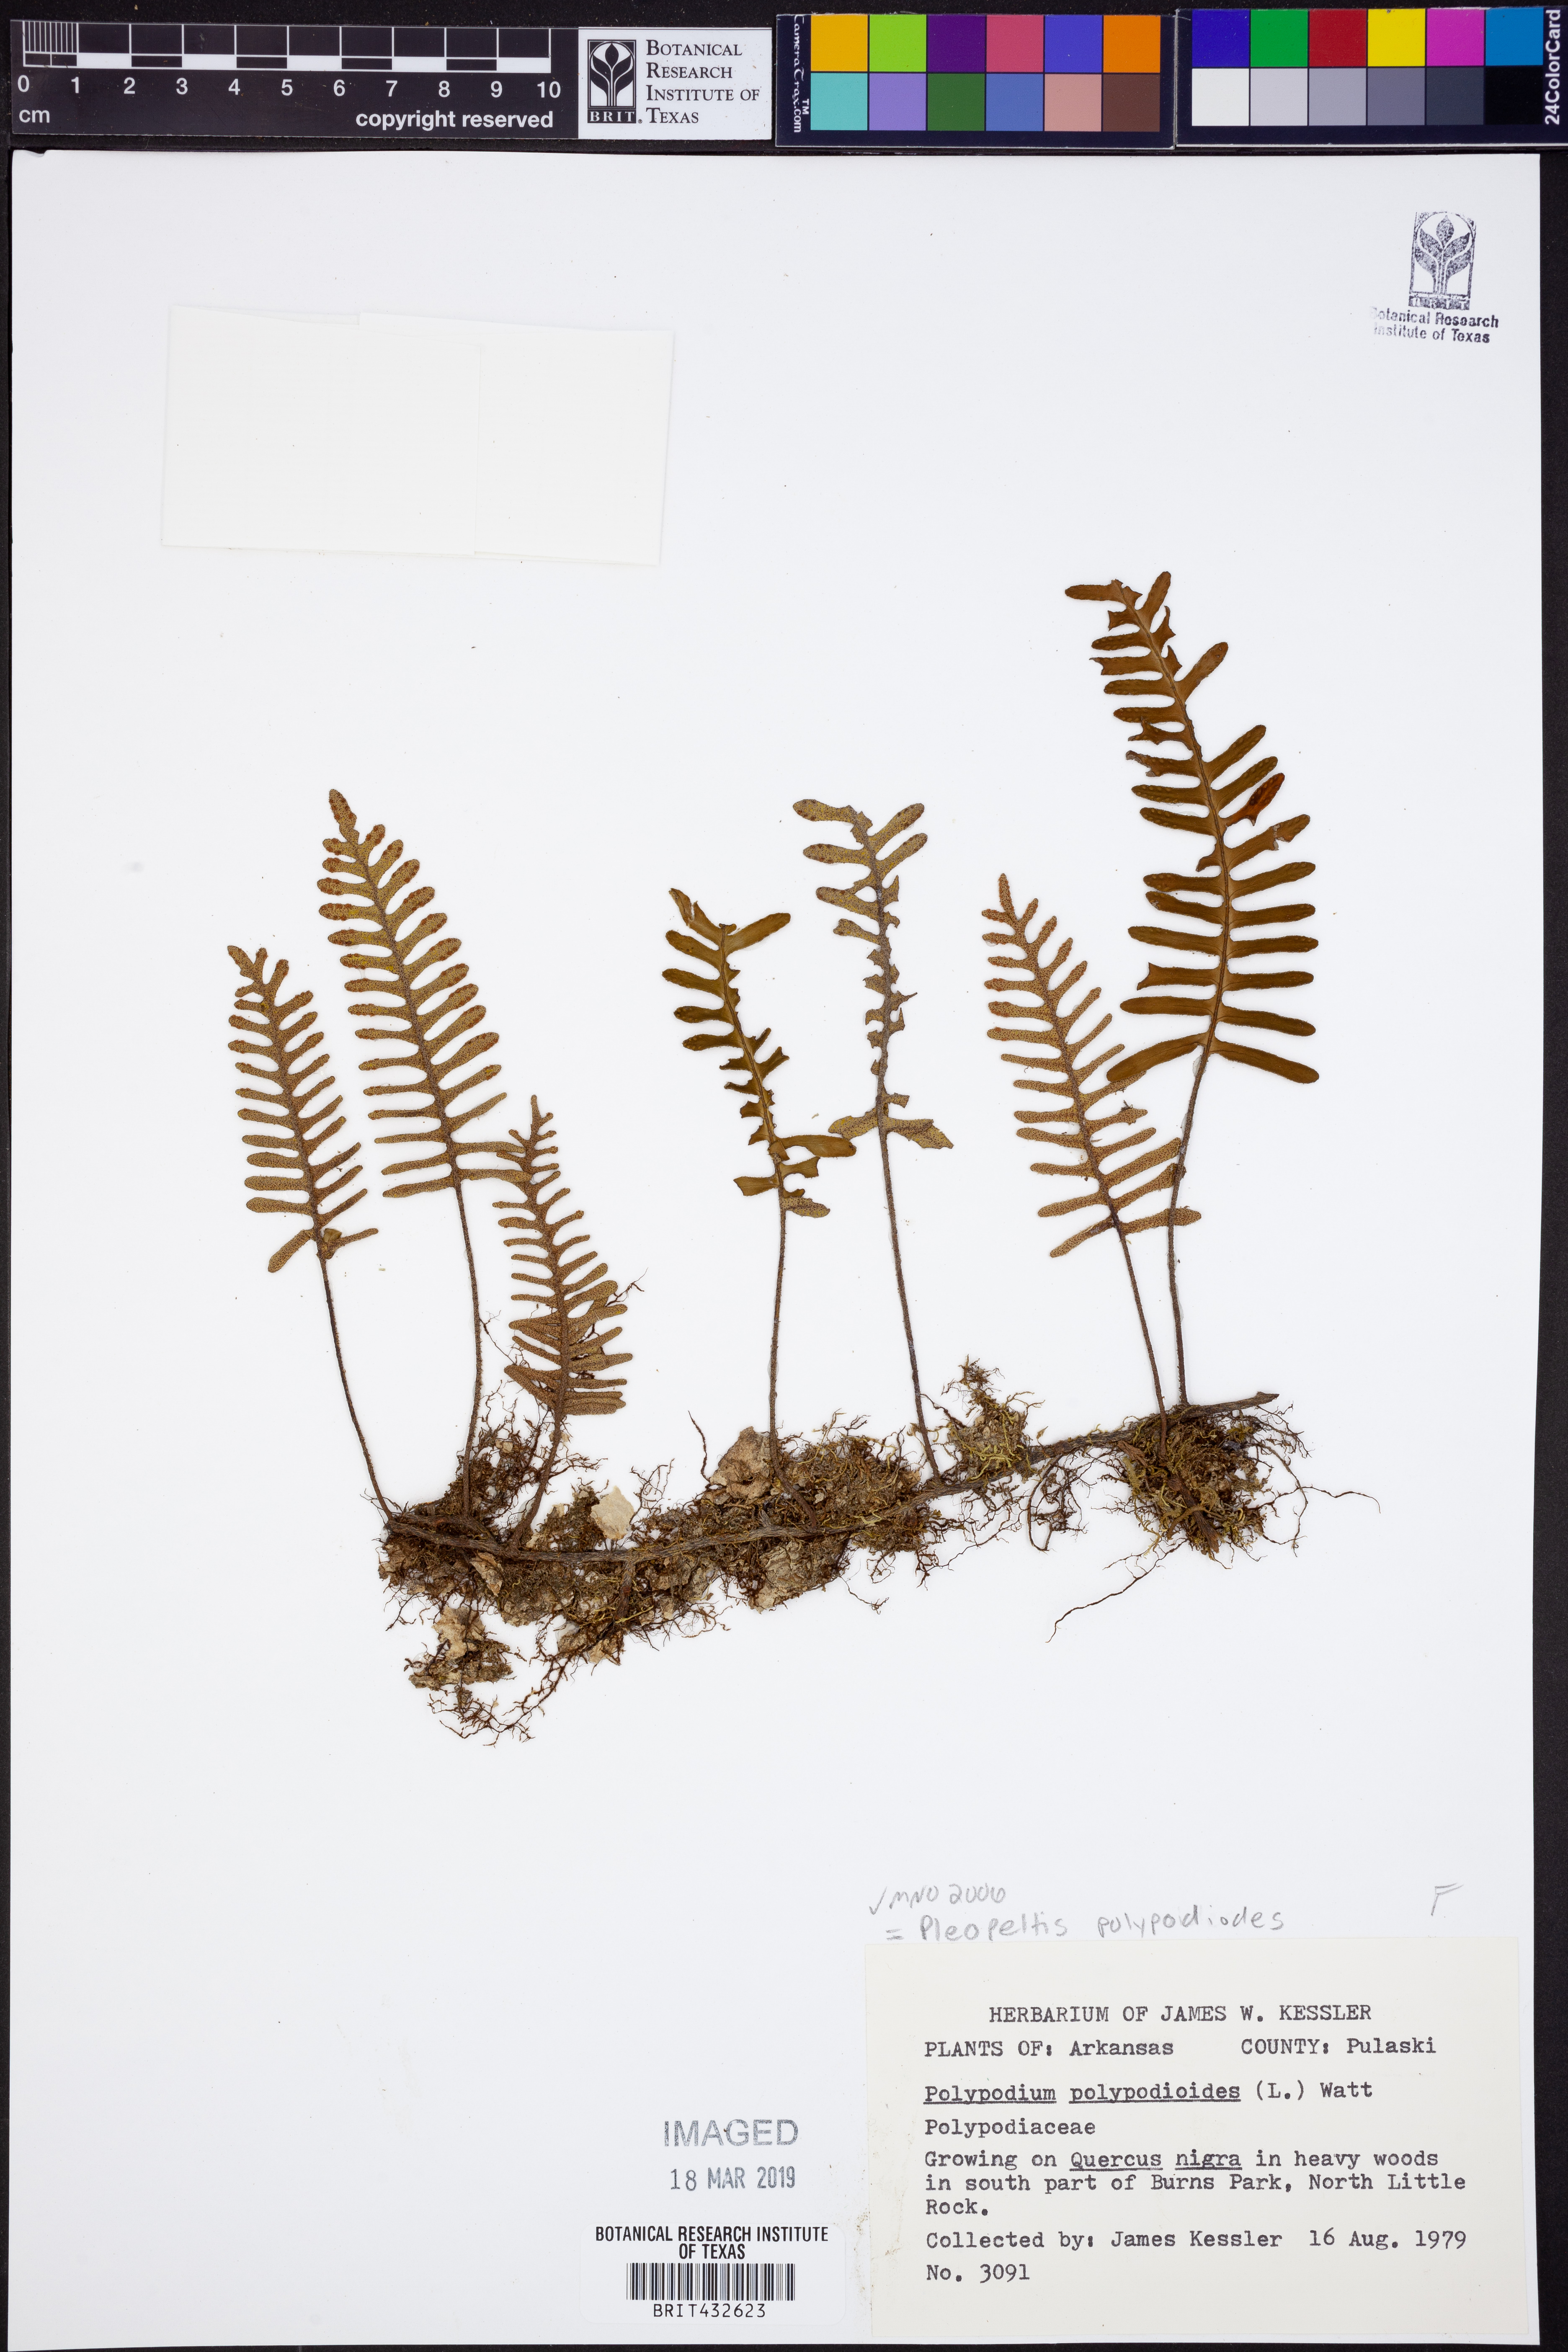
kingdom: Plantae
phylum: Tracheophyta
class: Polypodiopsida
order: Polypodiales
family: Polypodiaceae
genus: Pleopeltis
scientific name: Pleopeltis polypodioides
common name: Resurrection fern
